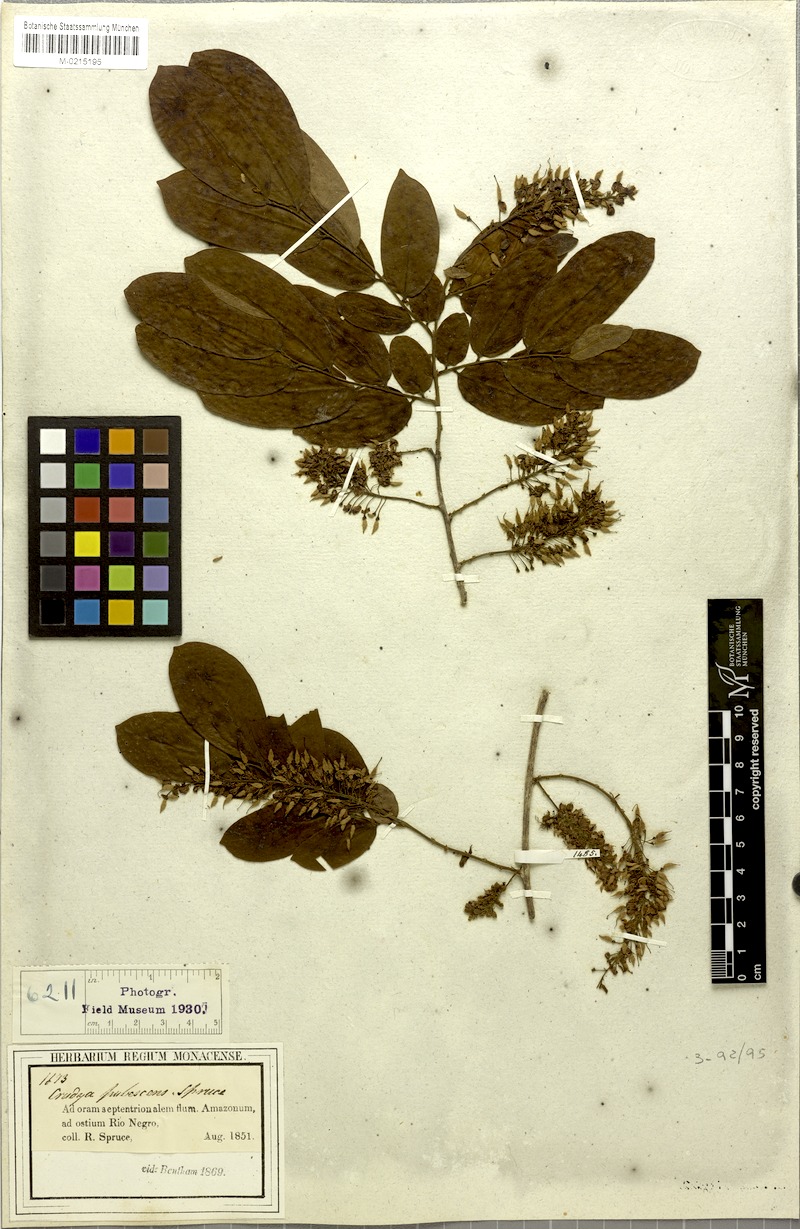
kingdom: Plantae
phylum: Tracheophyta
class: Magnoliopsida
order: Fabales
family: Fabaceae
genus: Crudia
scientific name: Crudia oblonga
